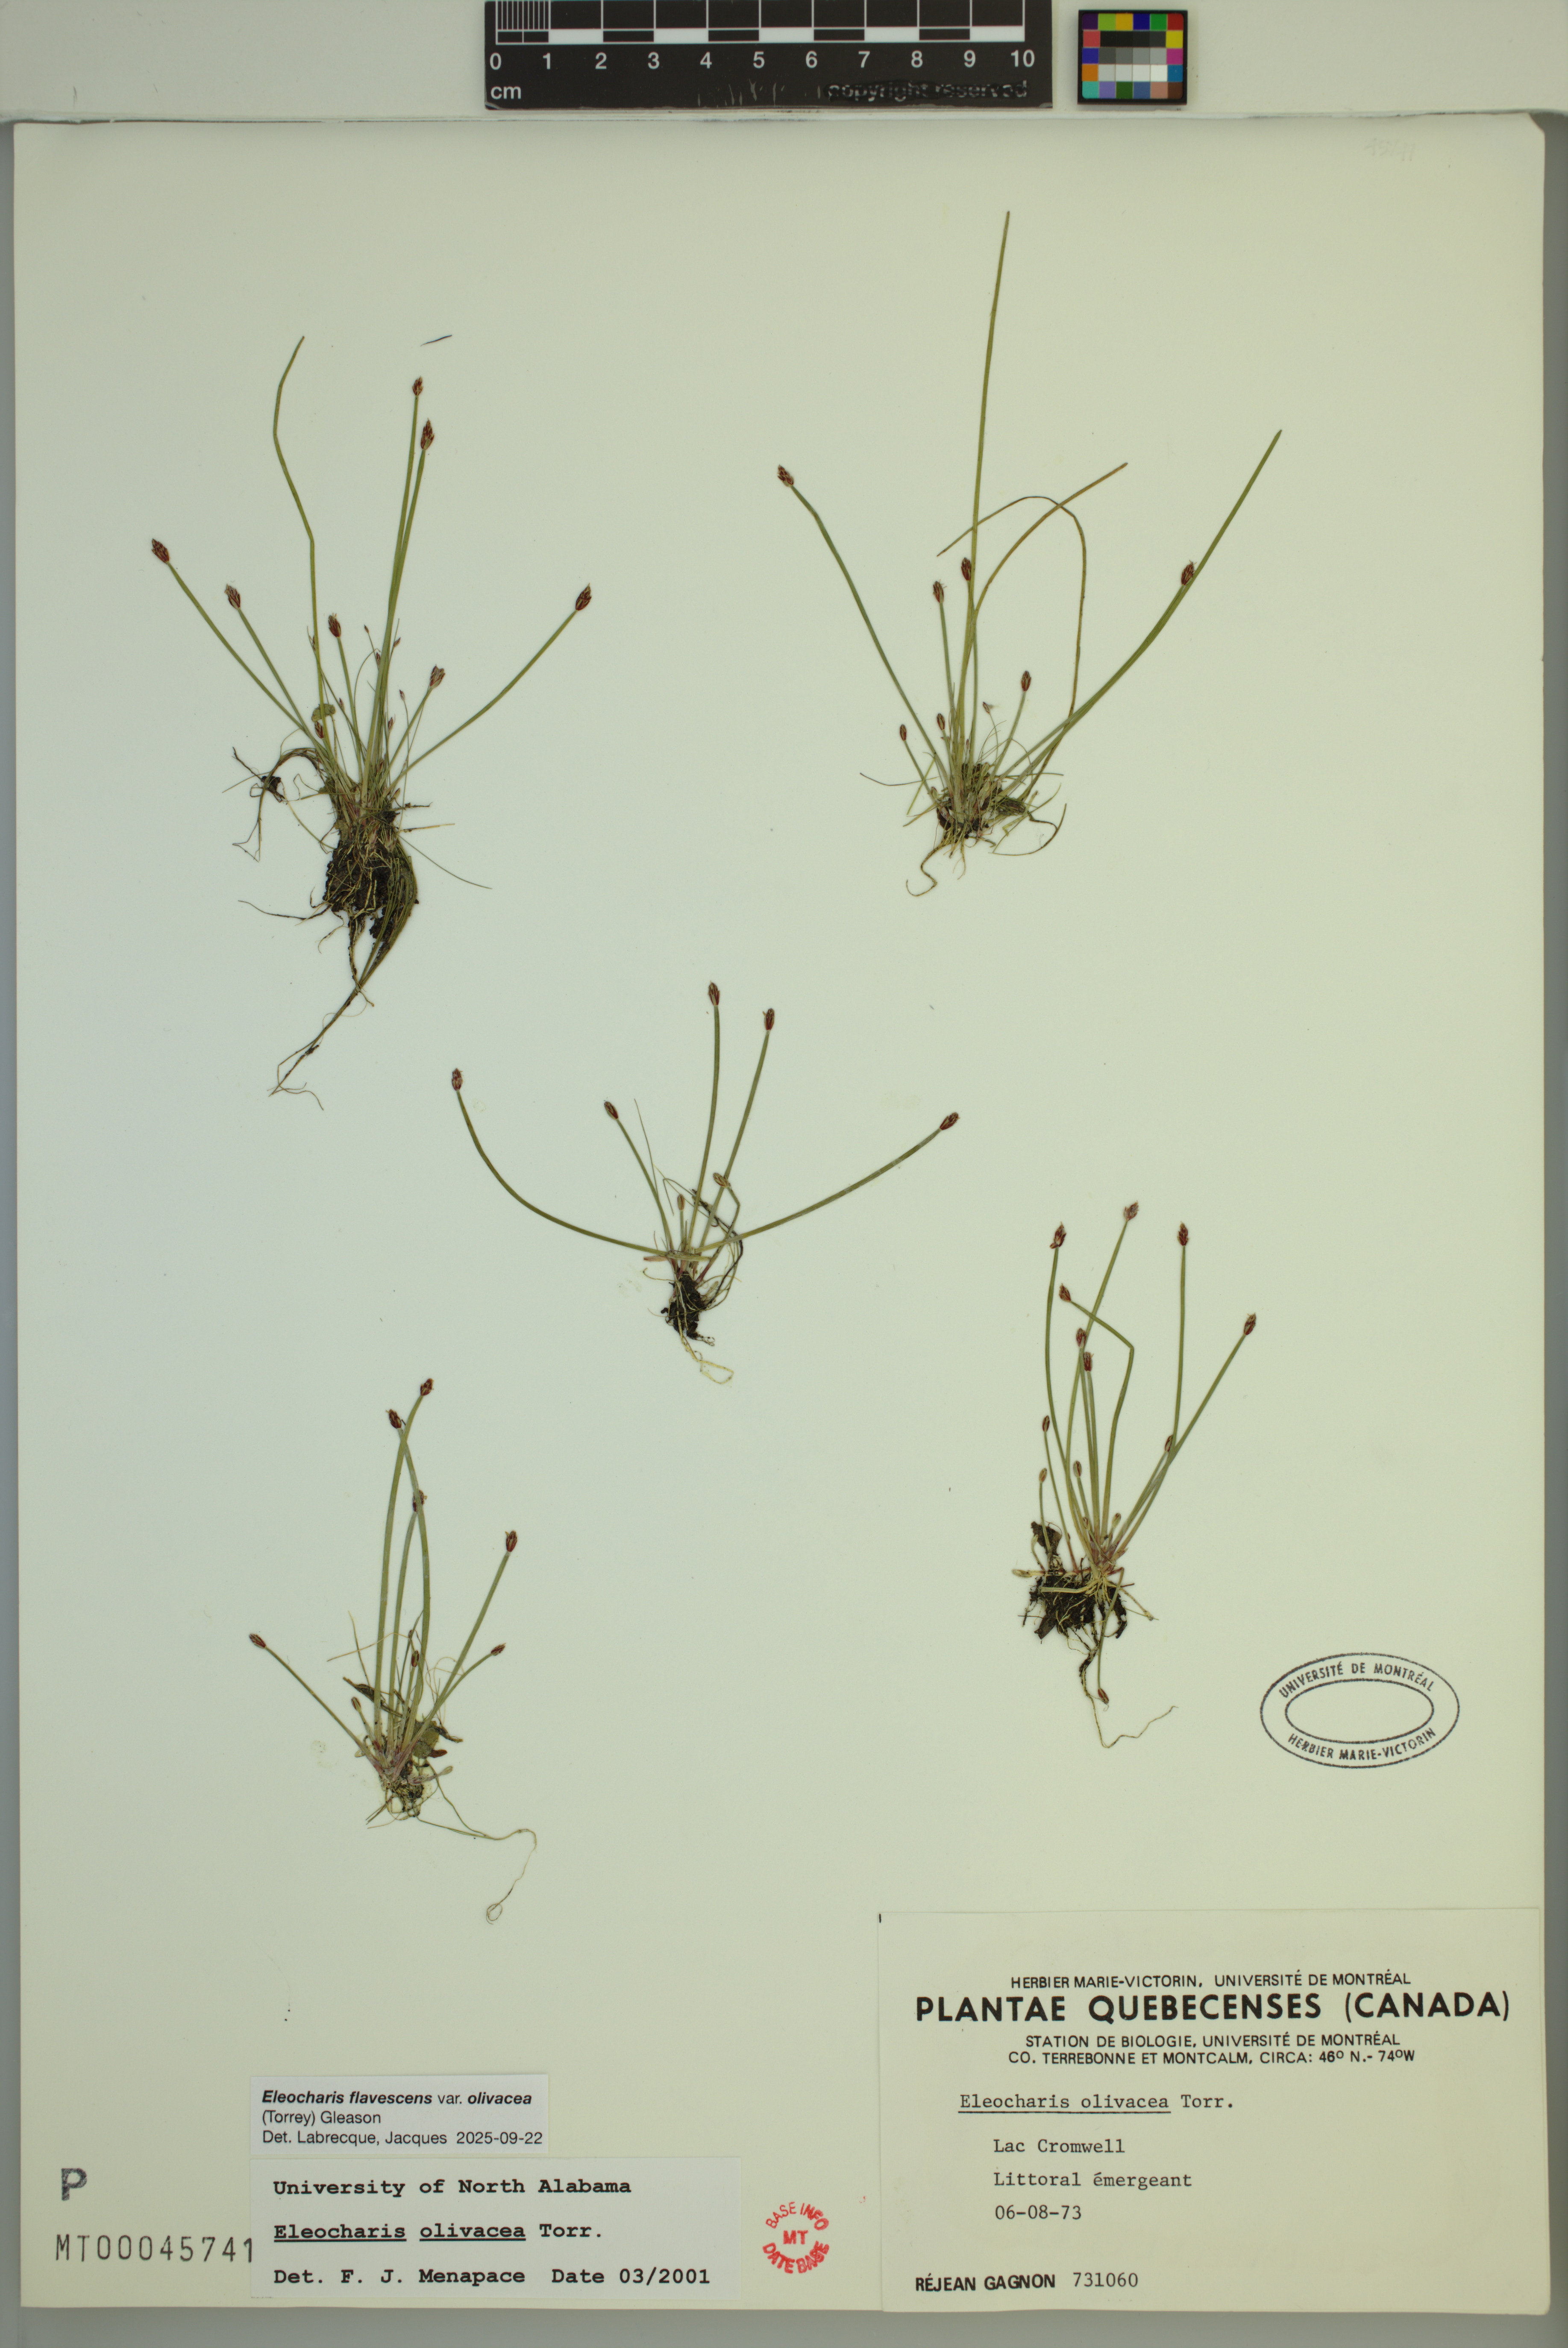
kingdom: Plantae
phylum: Tracheophyta
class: Liliopsida
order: Poales
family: Cyperaceae
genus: Eleocharis
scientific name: Eleocharis flavescens
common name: Yellow spikerush
